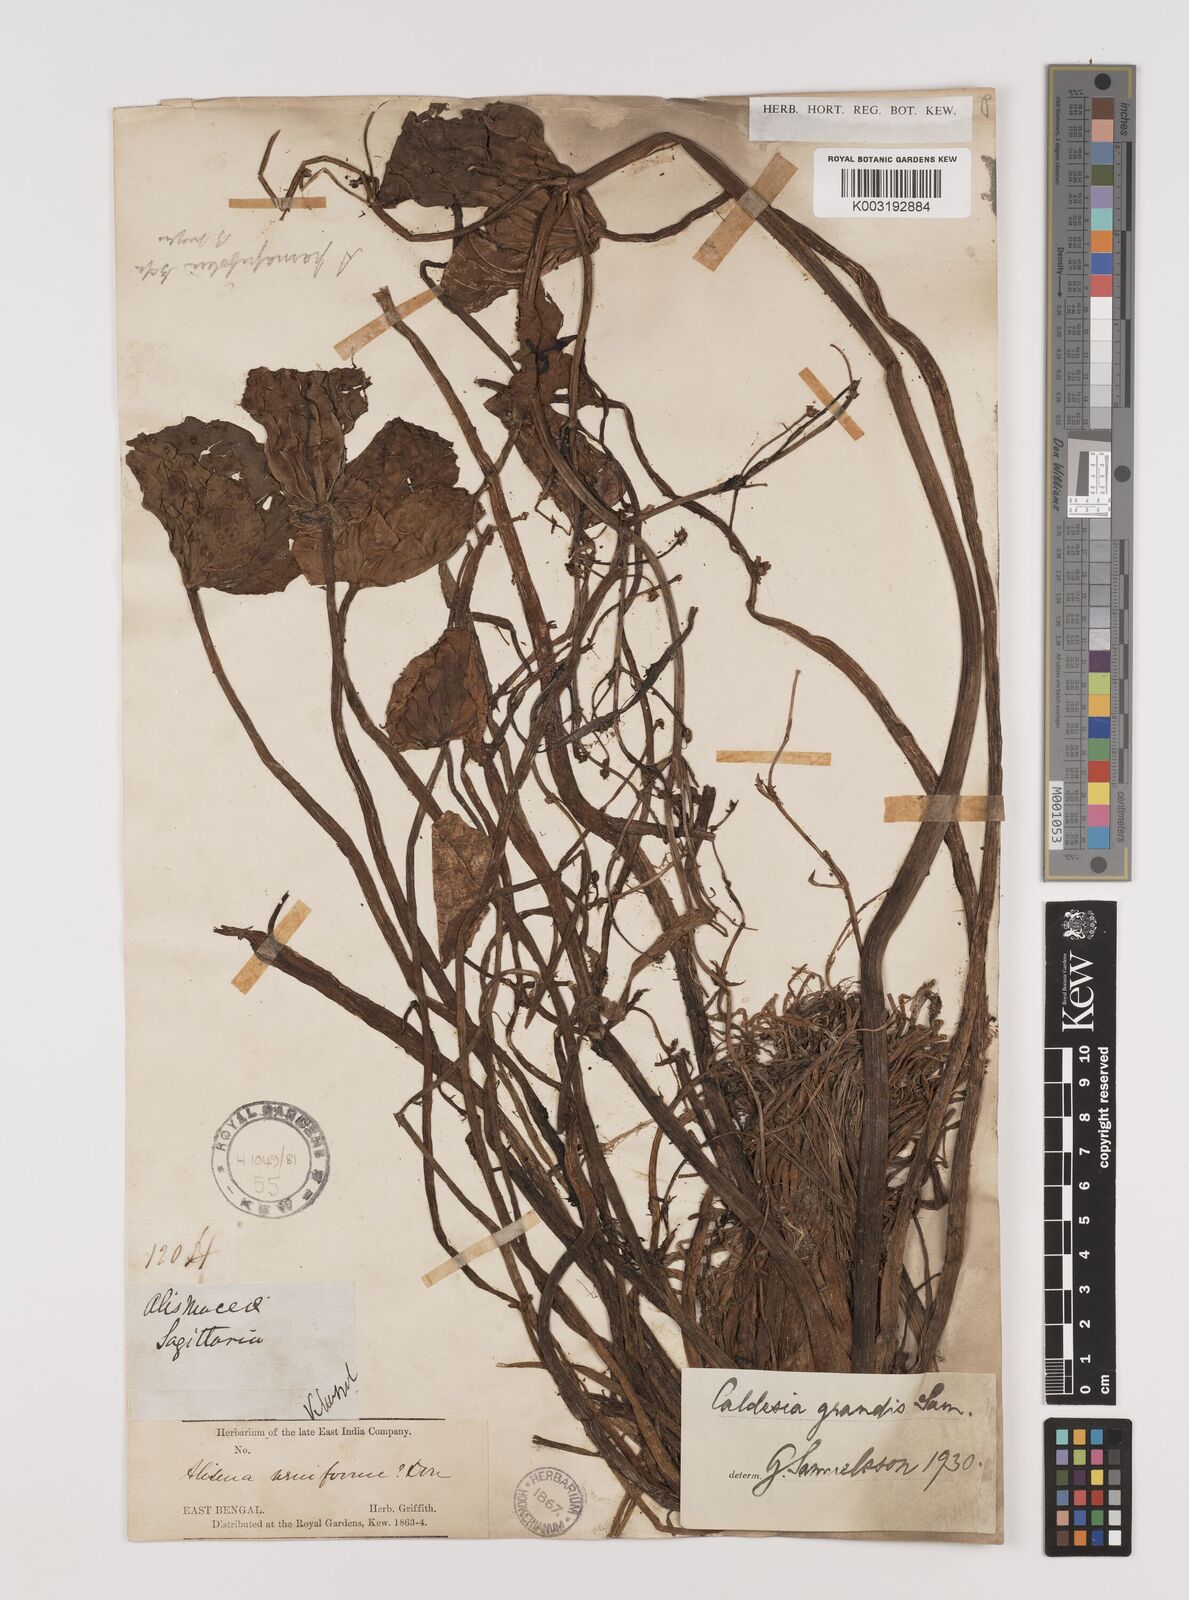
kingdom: Plantae
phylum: Tracheophyta
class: Liliopsida
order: Alismatales
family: Alismataceae
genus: Caldesia
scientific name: Caldesia grandis
